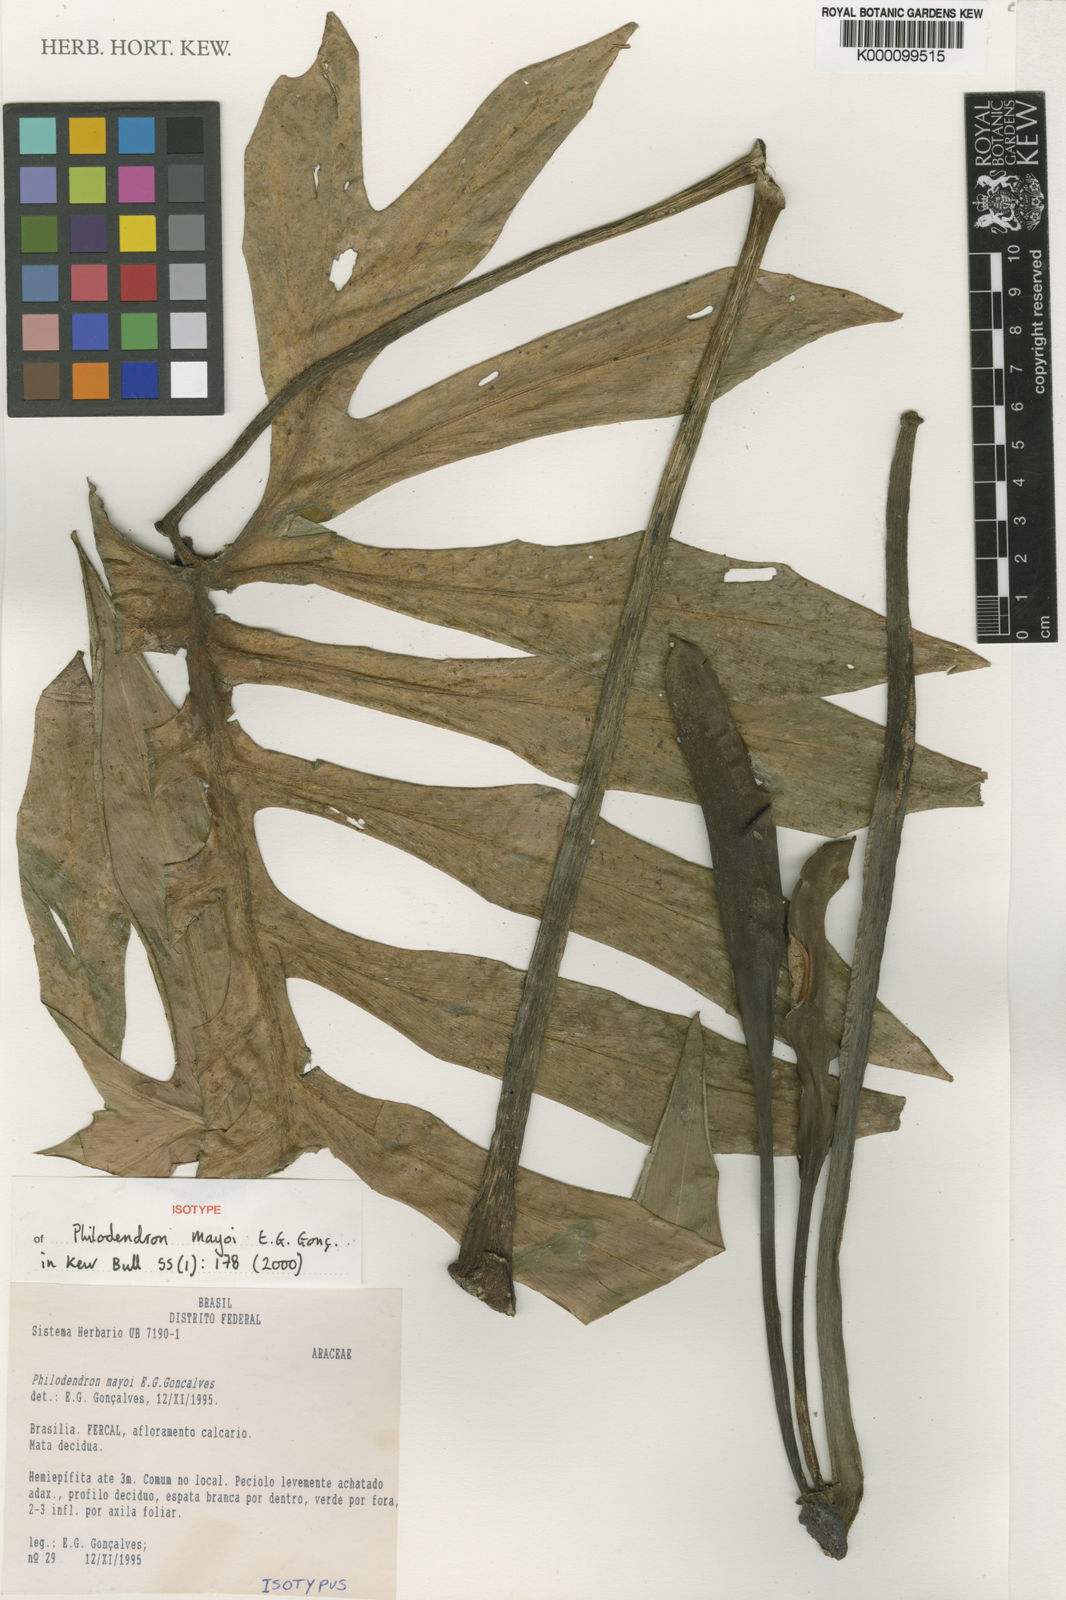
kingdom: Plantae
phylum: Tracheophyta
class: Liliopsida
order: Alismatales
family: Araceae
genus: Philodendron
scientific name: Philodendron
